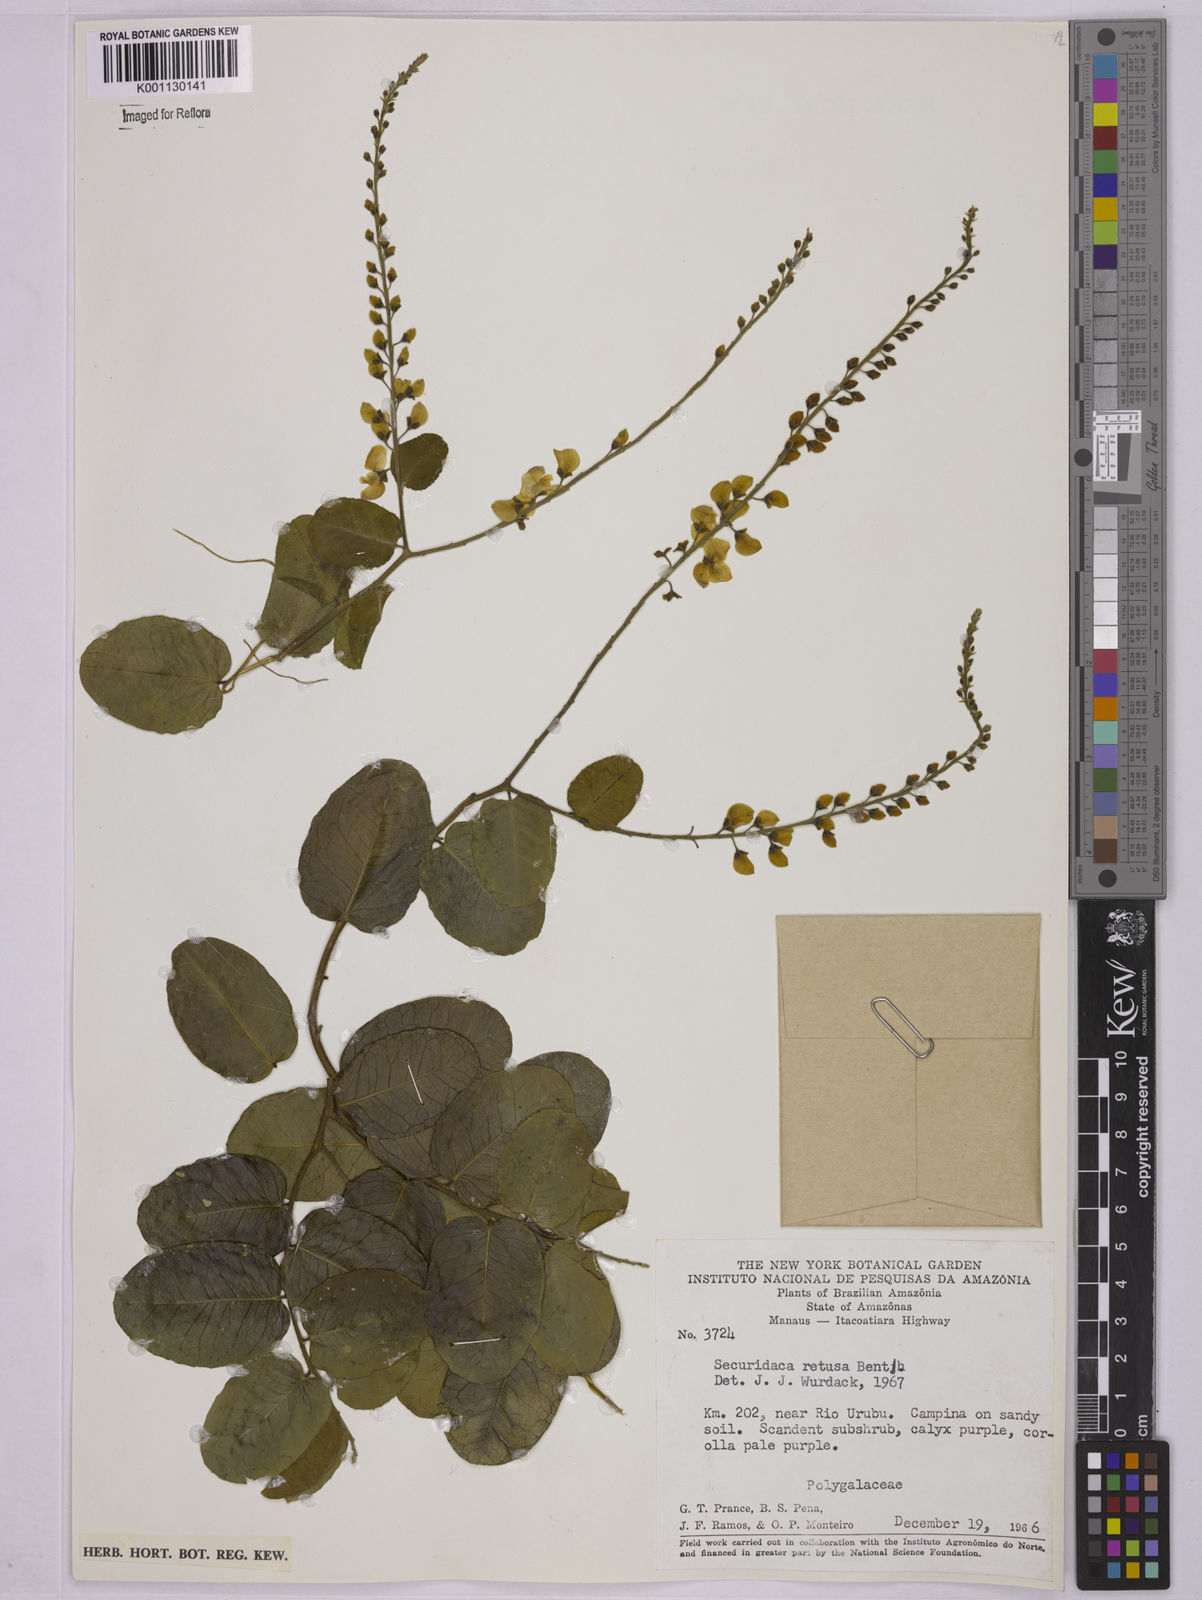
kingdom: Plantae
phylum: Tracheophyta
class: Magnoliopsida
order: Fabales
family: Polygalaceae
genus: Securidaca
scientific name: Securidaca retusa
